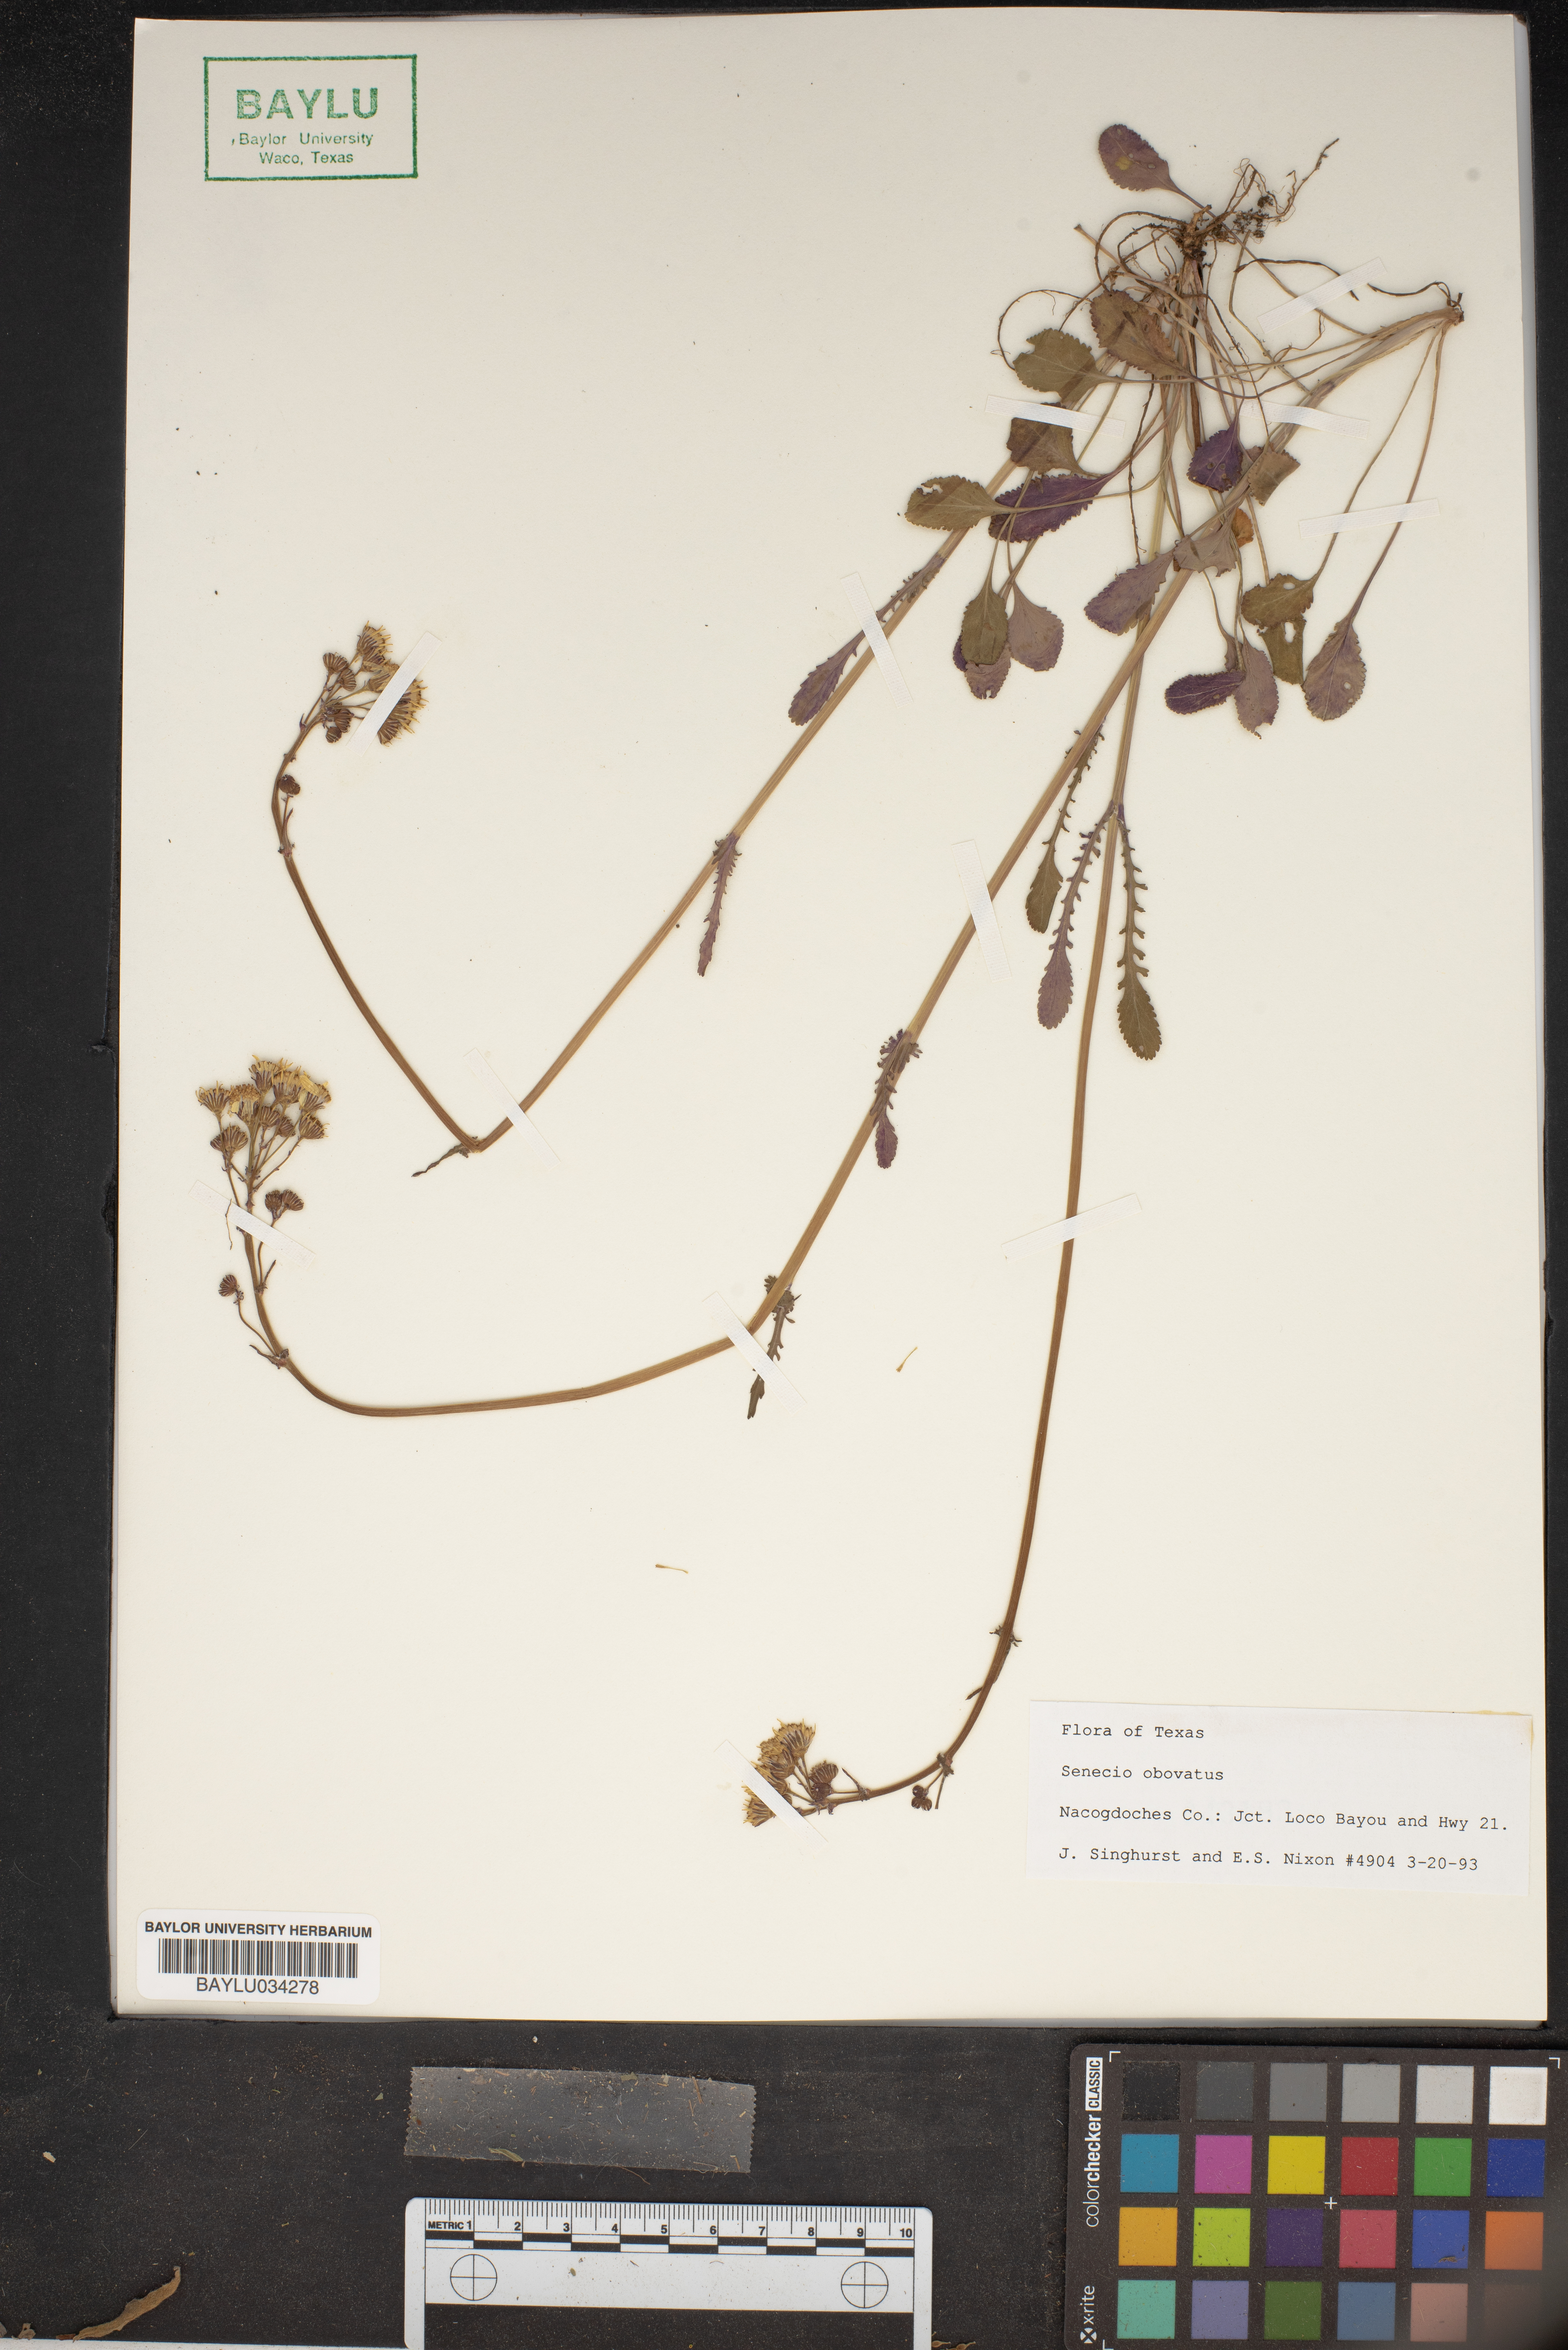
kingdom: Plantae
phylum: Tracheophyta
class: Magnoliopsida
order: Asterales
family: Asteraceae
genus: Senecio
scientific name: Senecio provincialis
